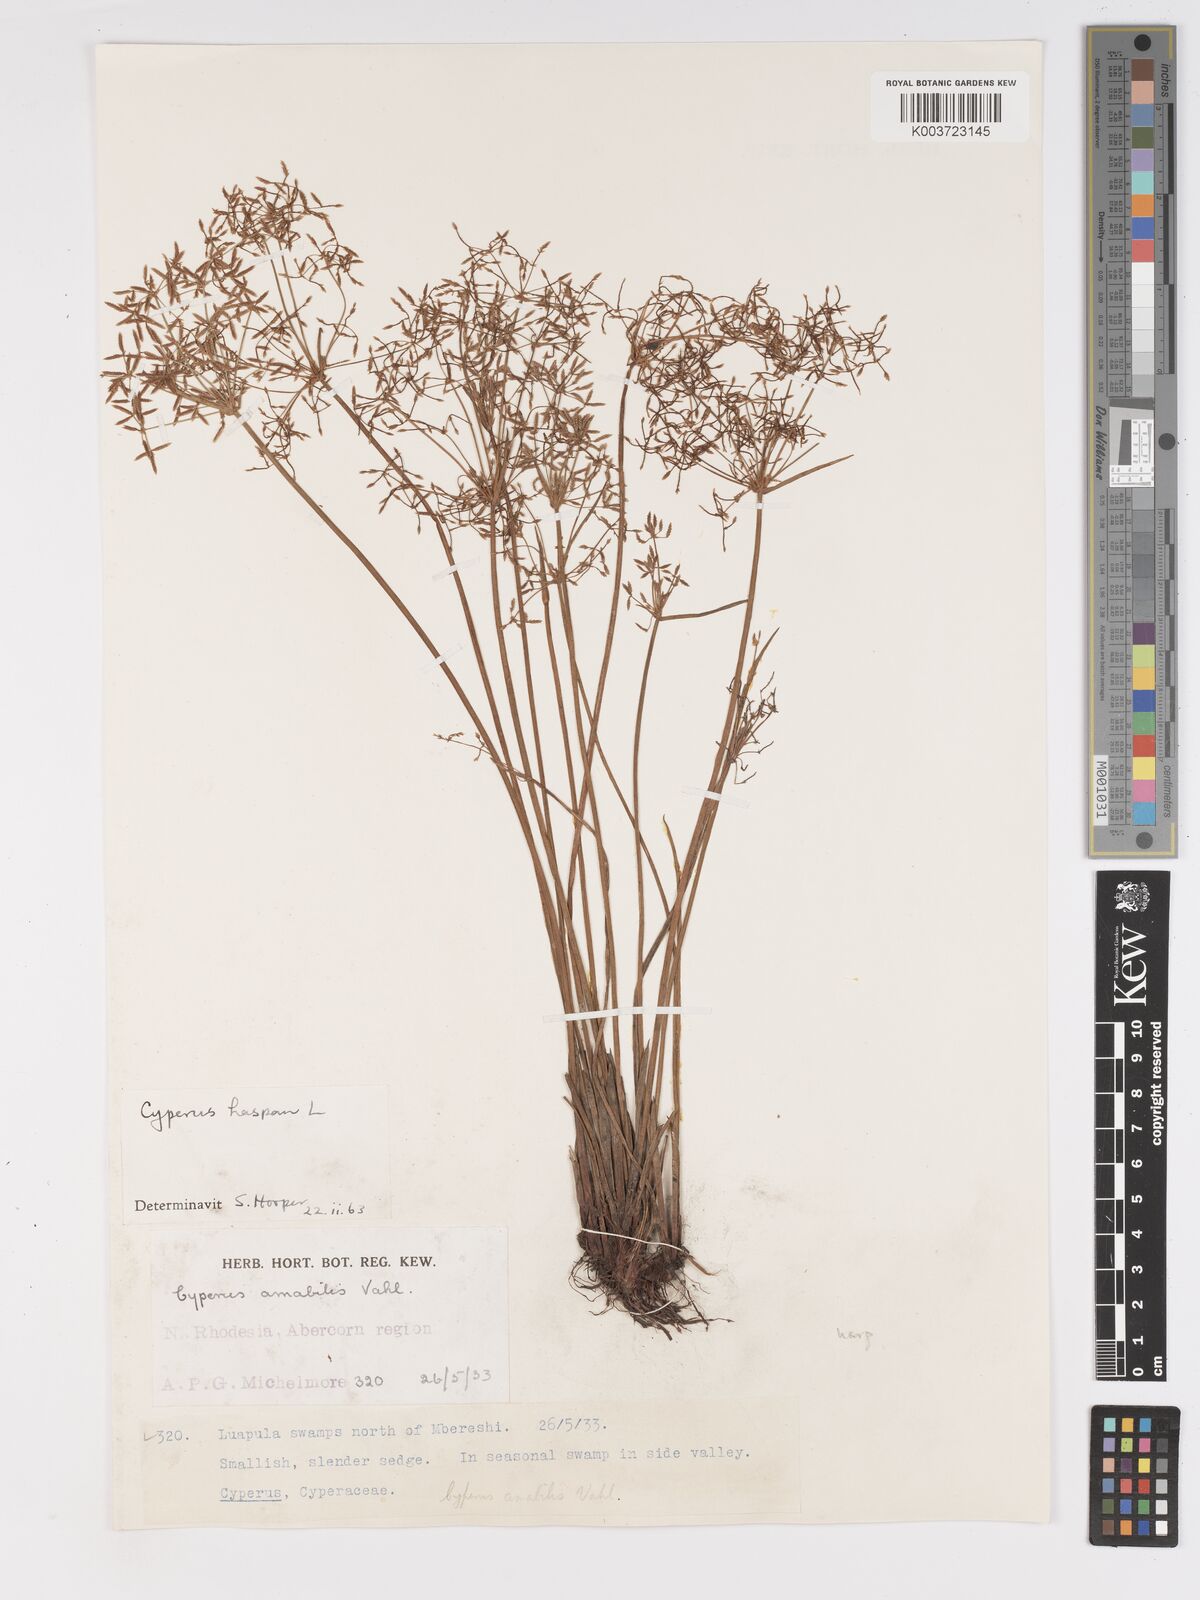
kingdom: Plantae
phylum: Tracheophyta
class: Liliopsida
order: Poales
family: Cyperaceae
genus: Cyperus
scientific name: Cyperus haspan
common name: Haspan flatsedge
